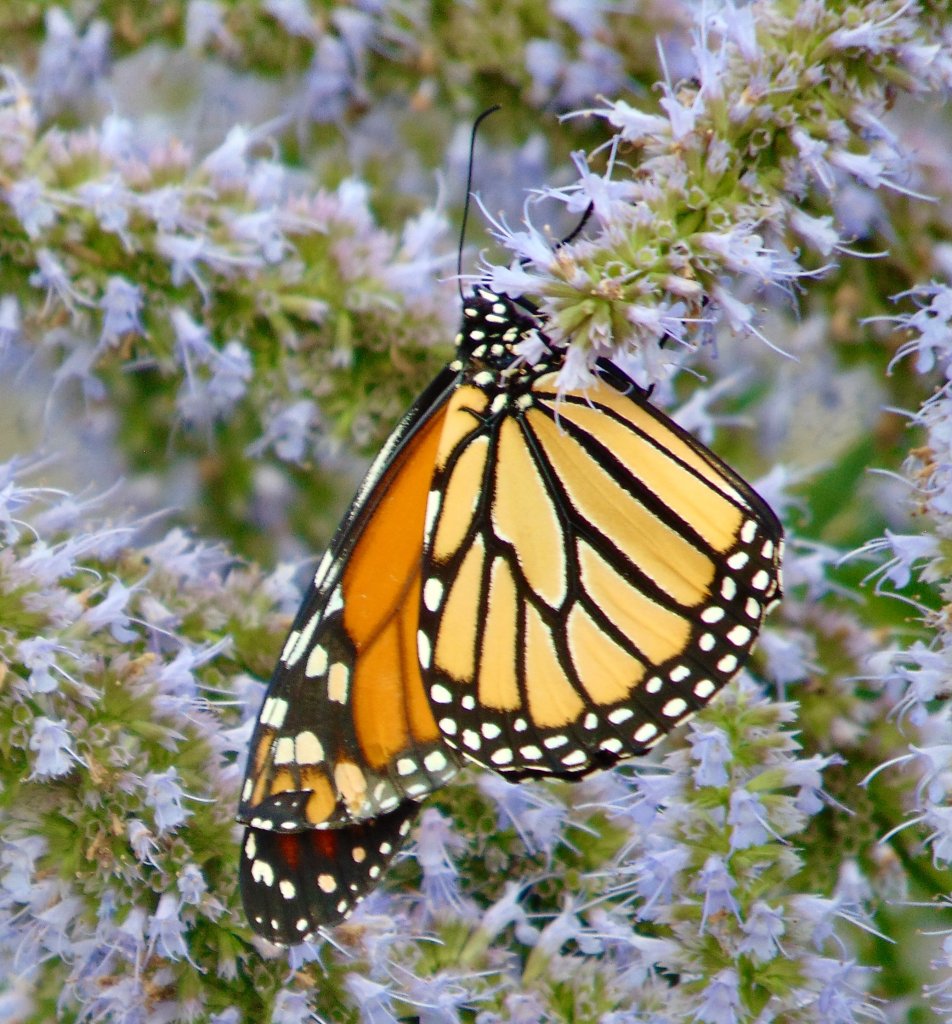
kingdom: Animalia
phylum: Arthropoda
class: Insecta
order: Lepidoptera
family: Nymphalidae
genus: Danaus
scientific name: Danaus plexippus
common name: Monarch
